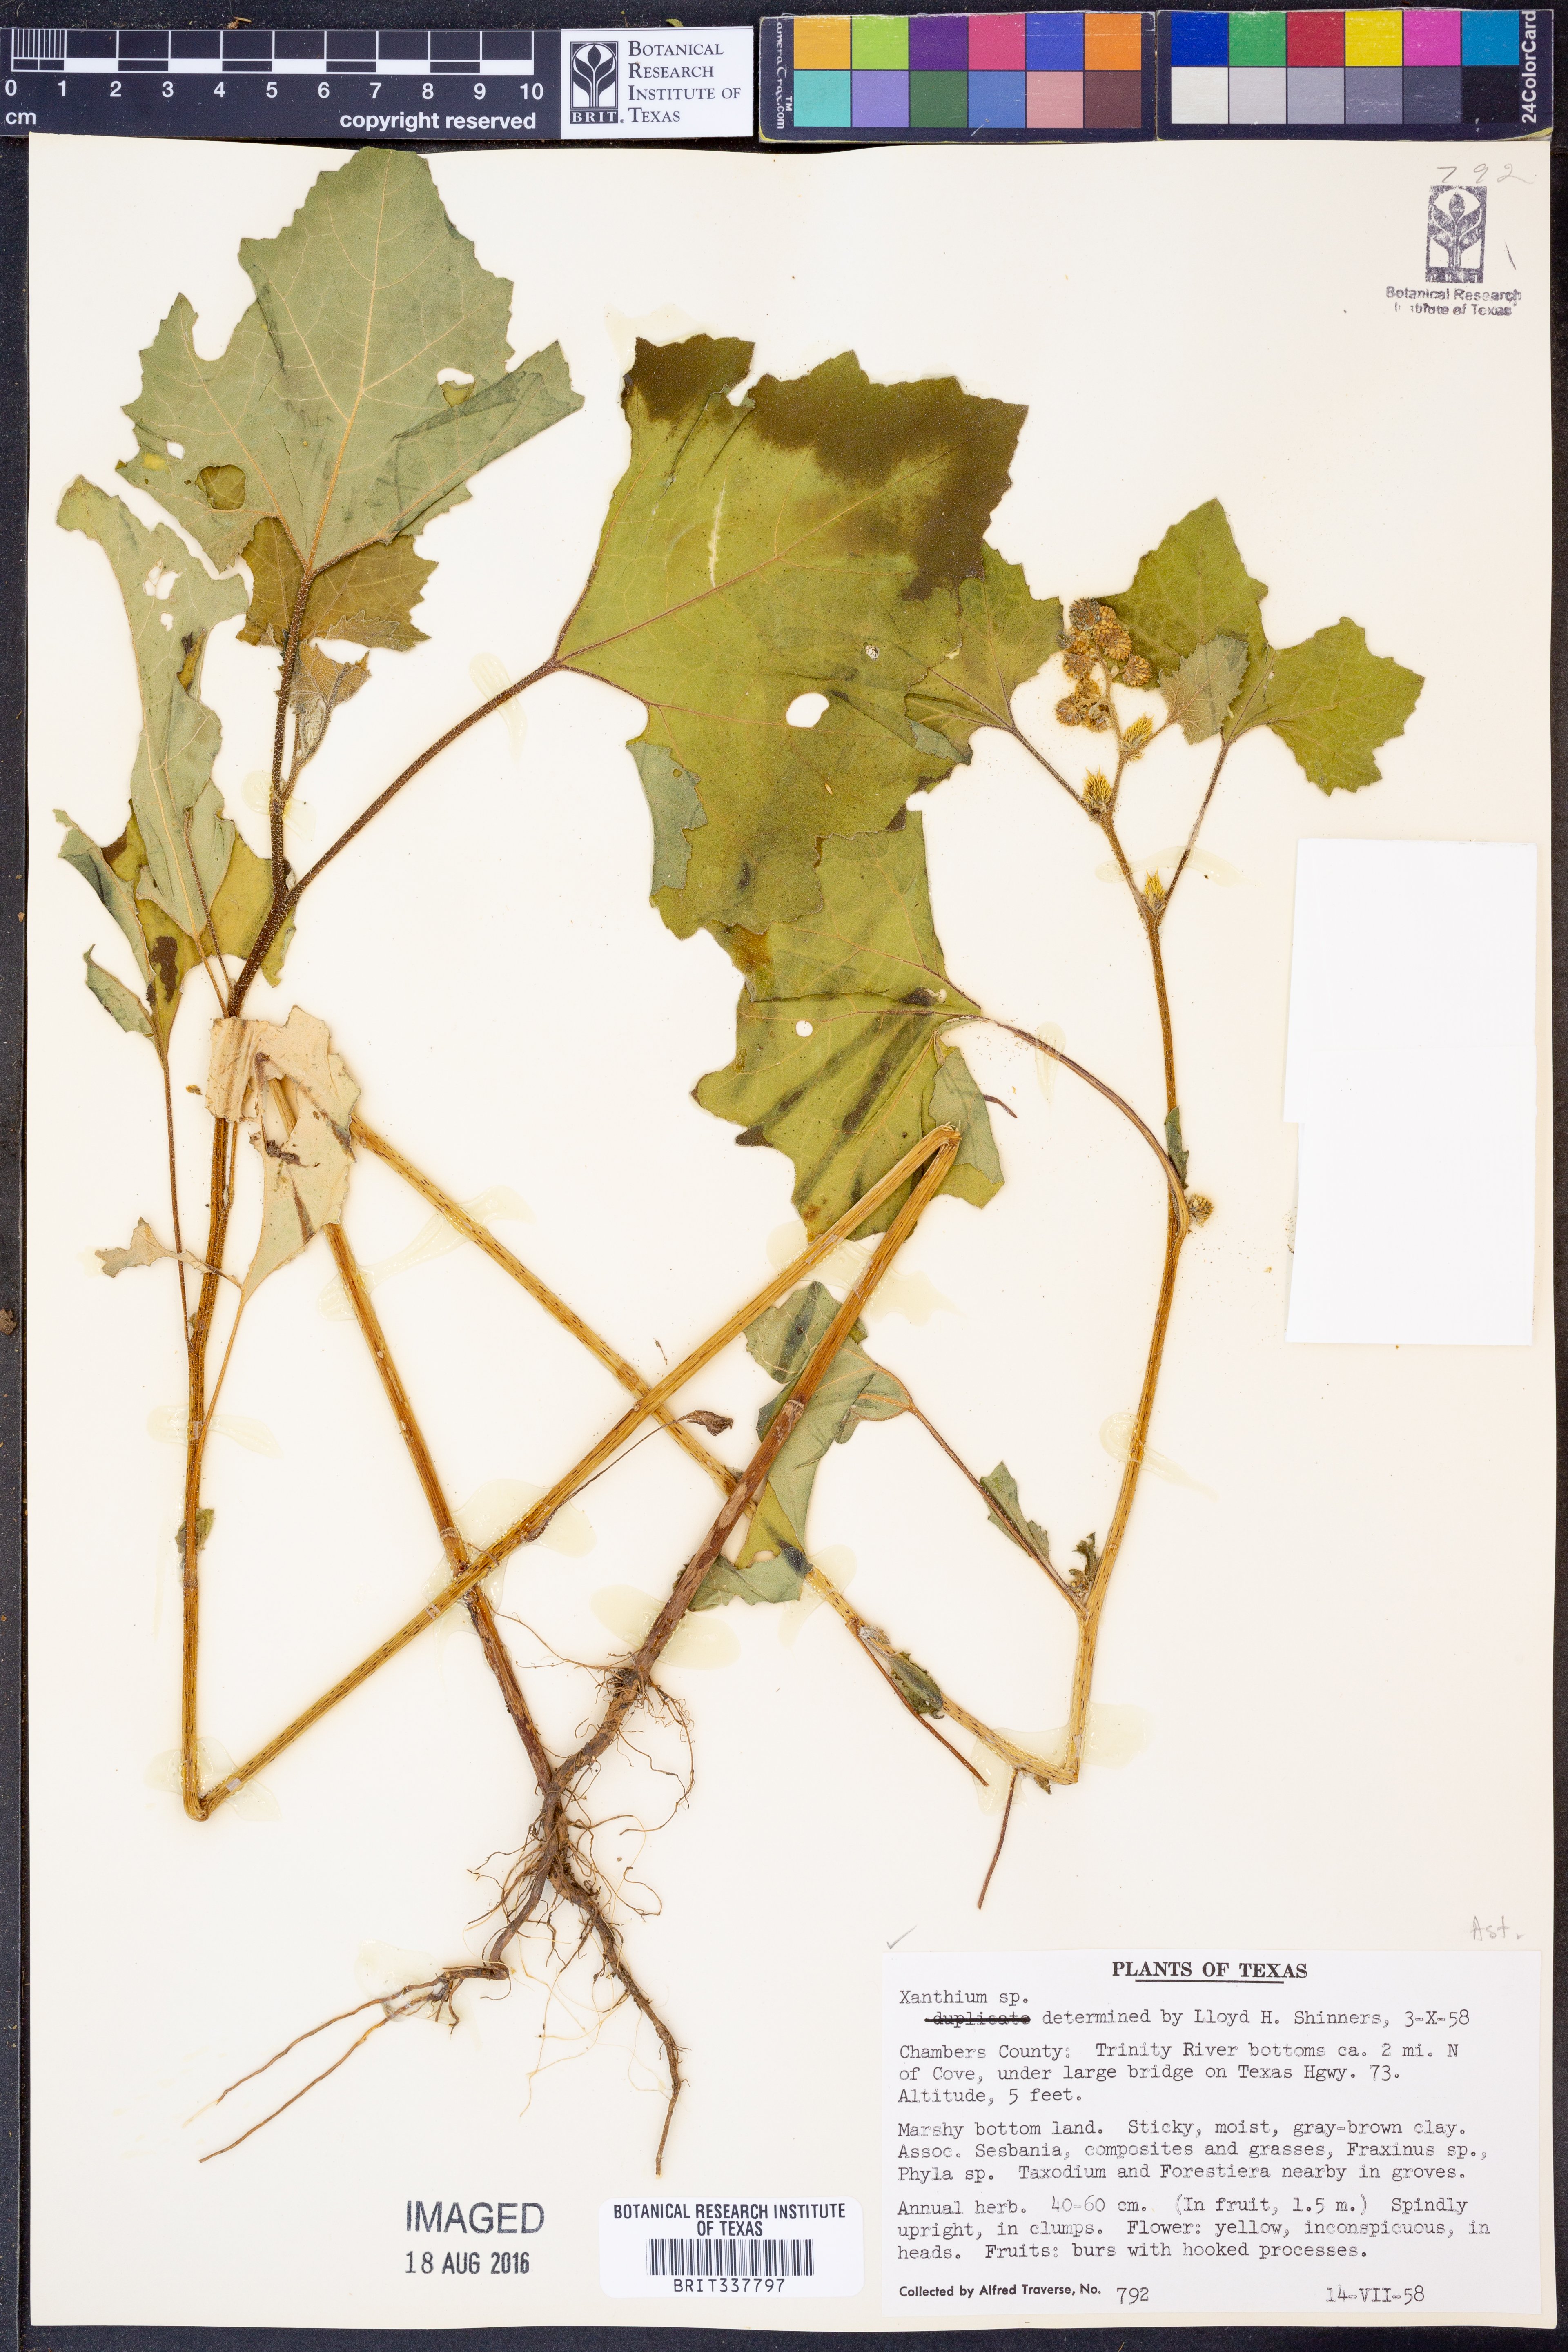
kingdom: Plantae
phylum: Tracheophyta
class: Magnoliopsida
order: Asterales
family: Asteraceae
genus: Xanthium
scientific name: Xanthium
